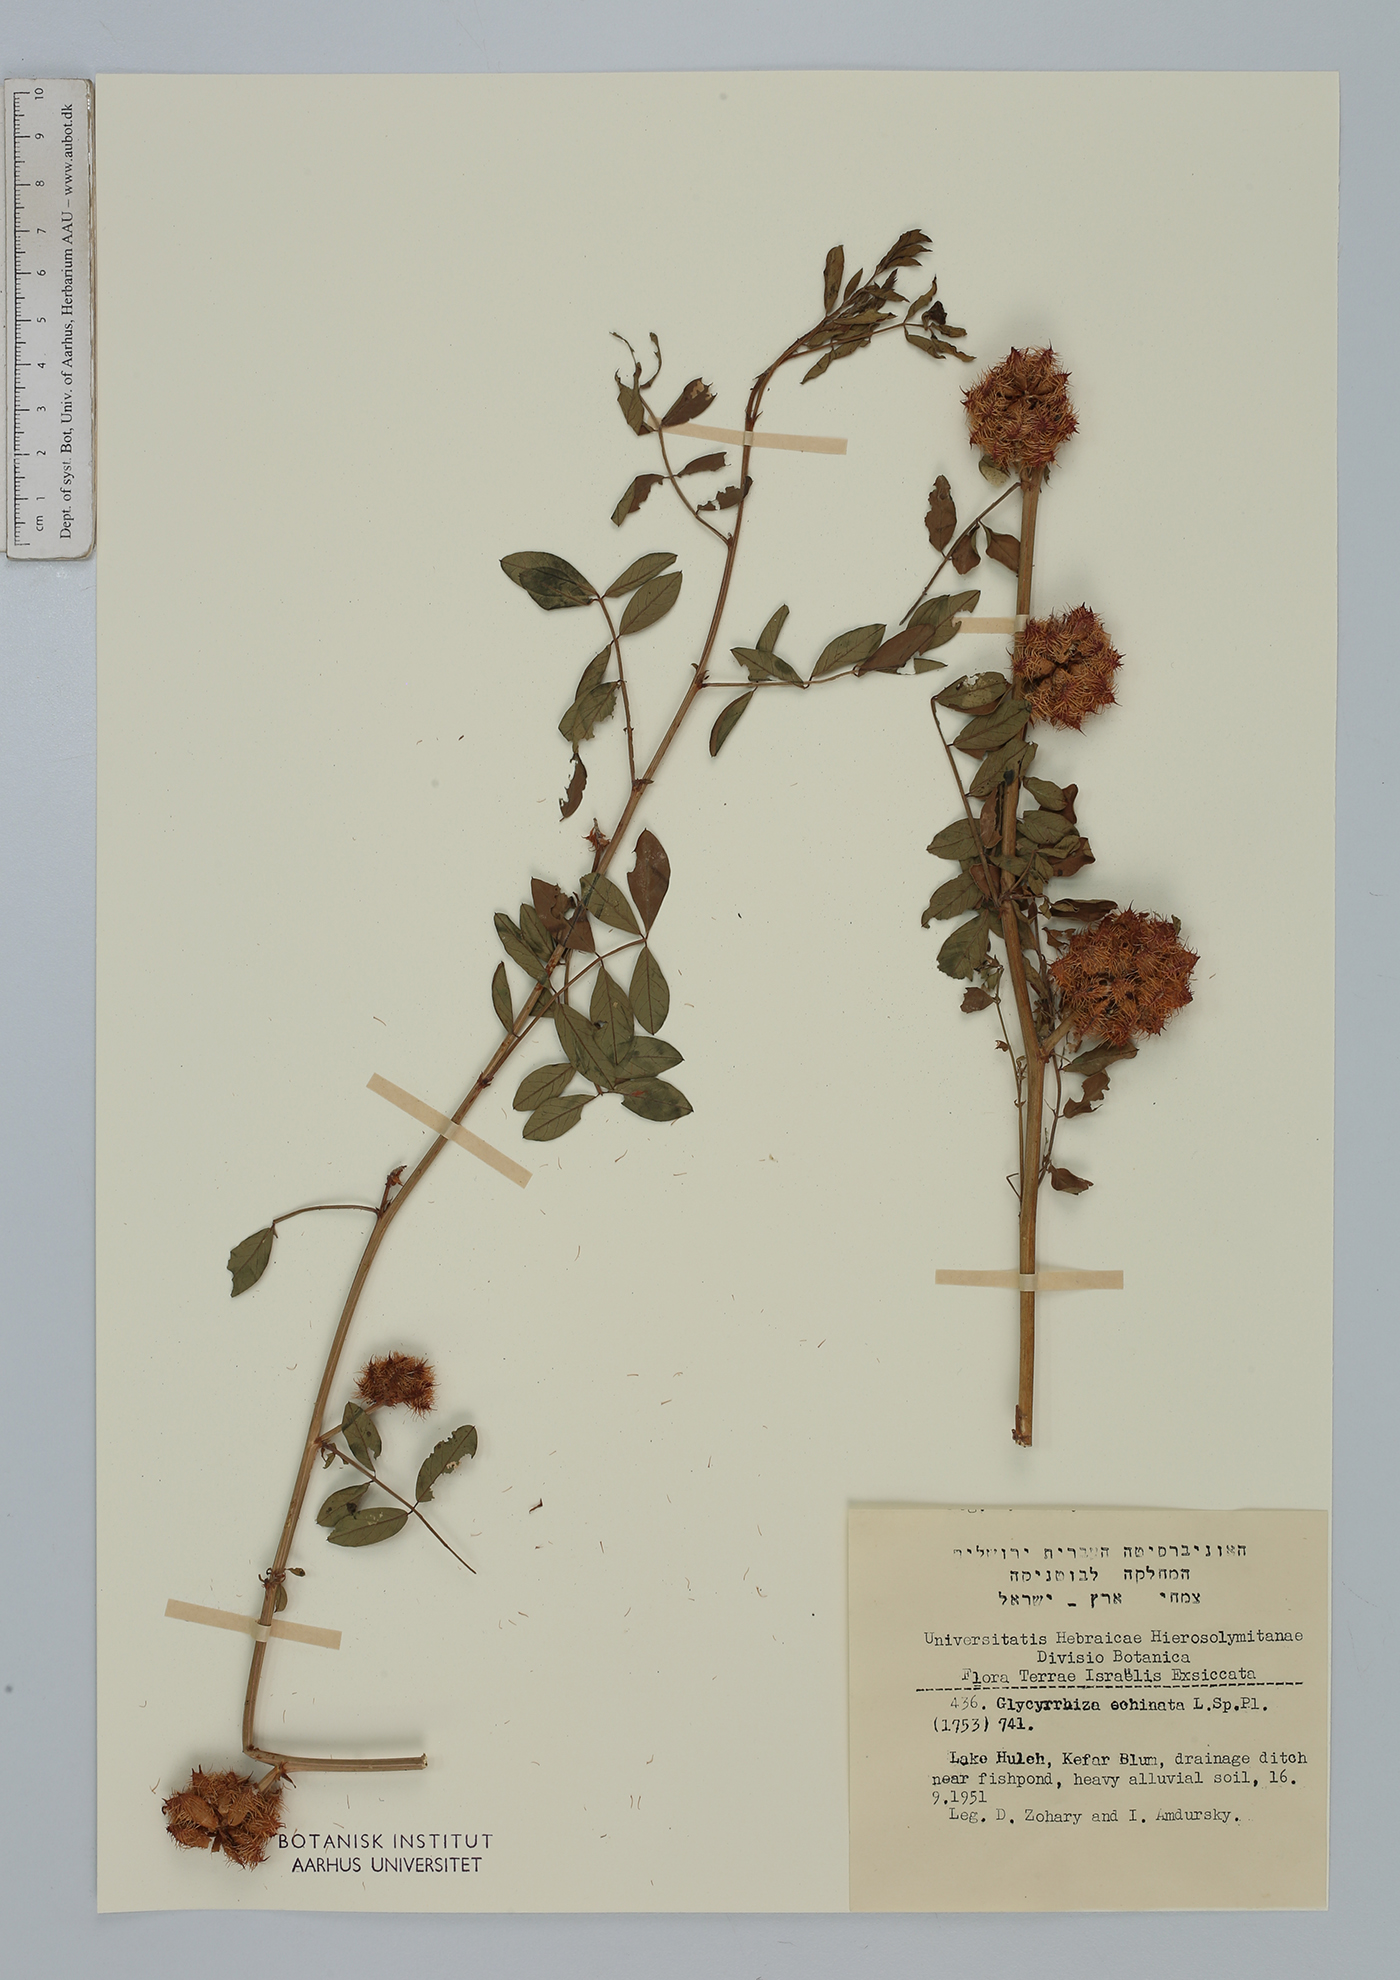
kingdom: Plantae
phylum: Tracheophyta
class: Magnoliopsida
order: Fabales
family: Fabaceae
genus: Glycyrrhiza
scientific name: Glycyrrhiza echinata
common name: German liquorice
